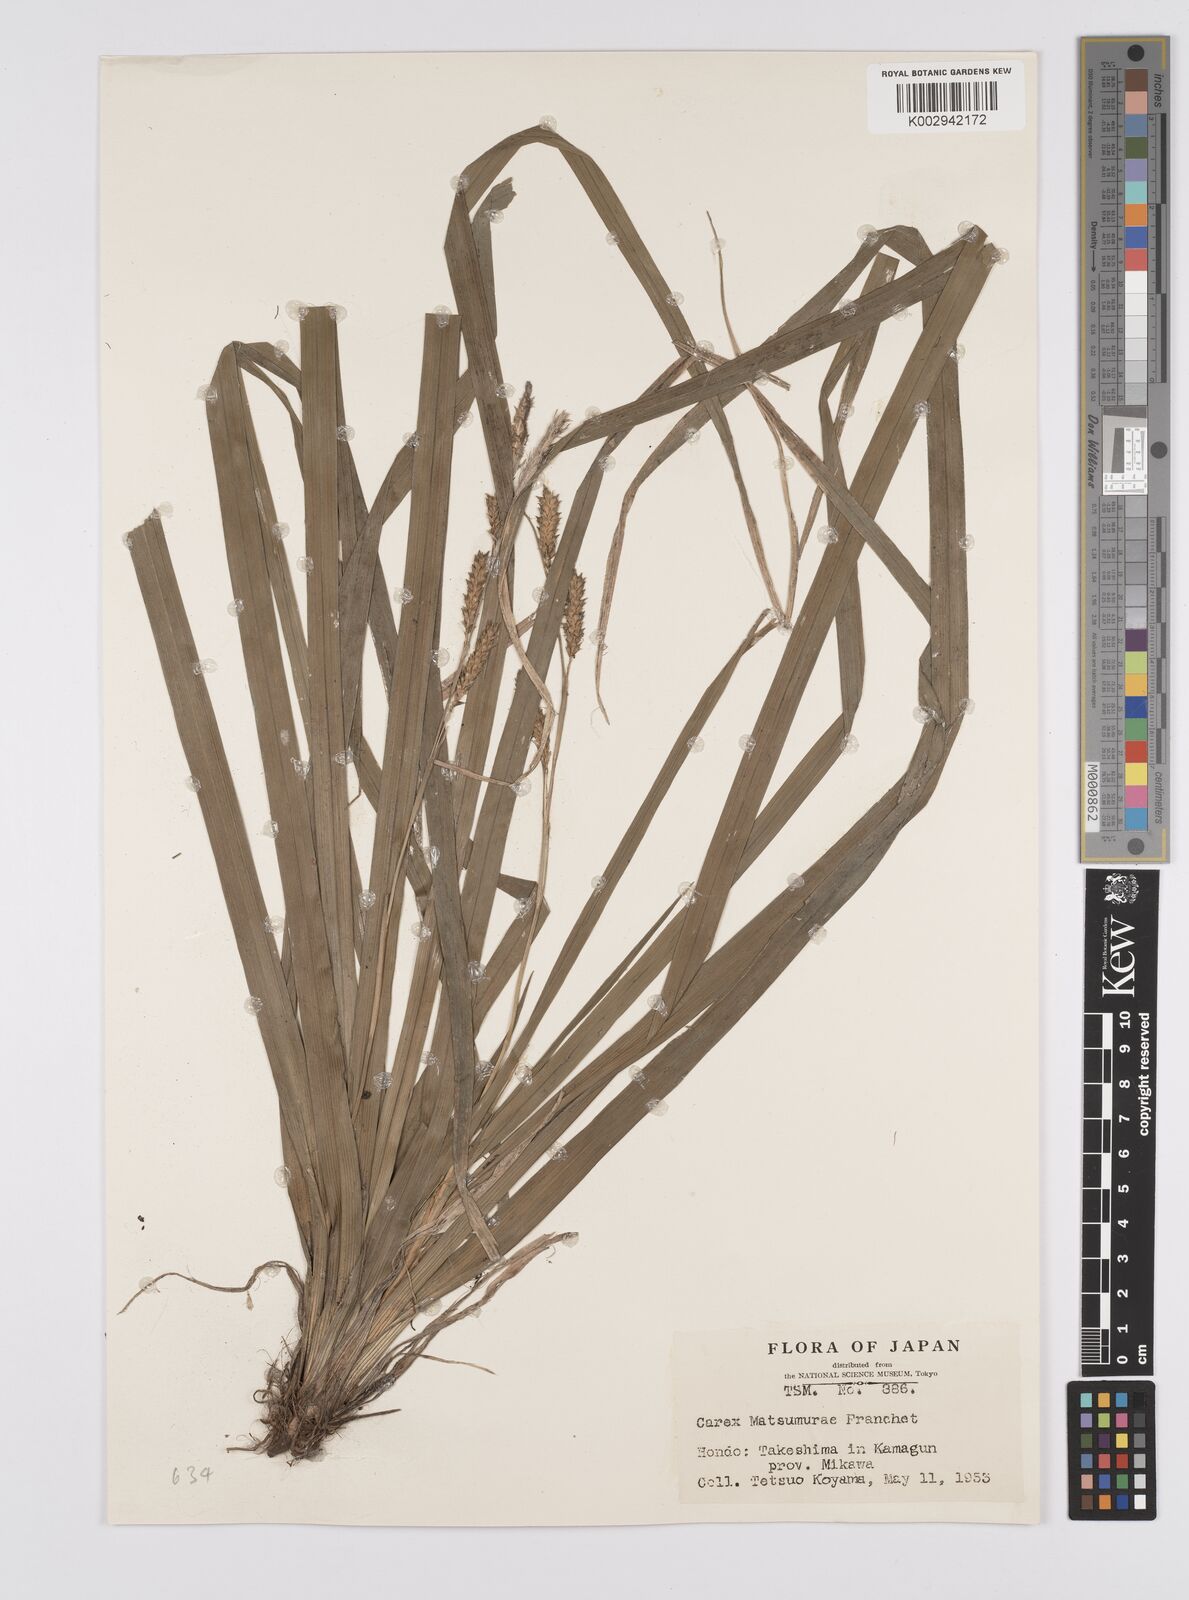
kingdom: Plantae
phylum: Tracheophyta
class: Liliopsida
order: Poales
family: Cyperaceae
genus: Carex
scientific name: Carex matsumurae
